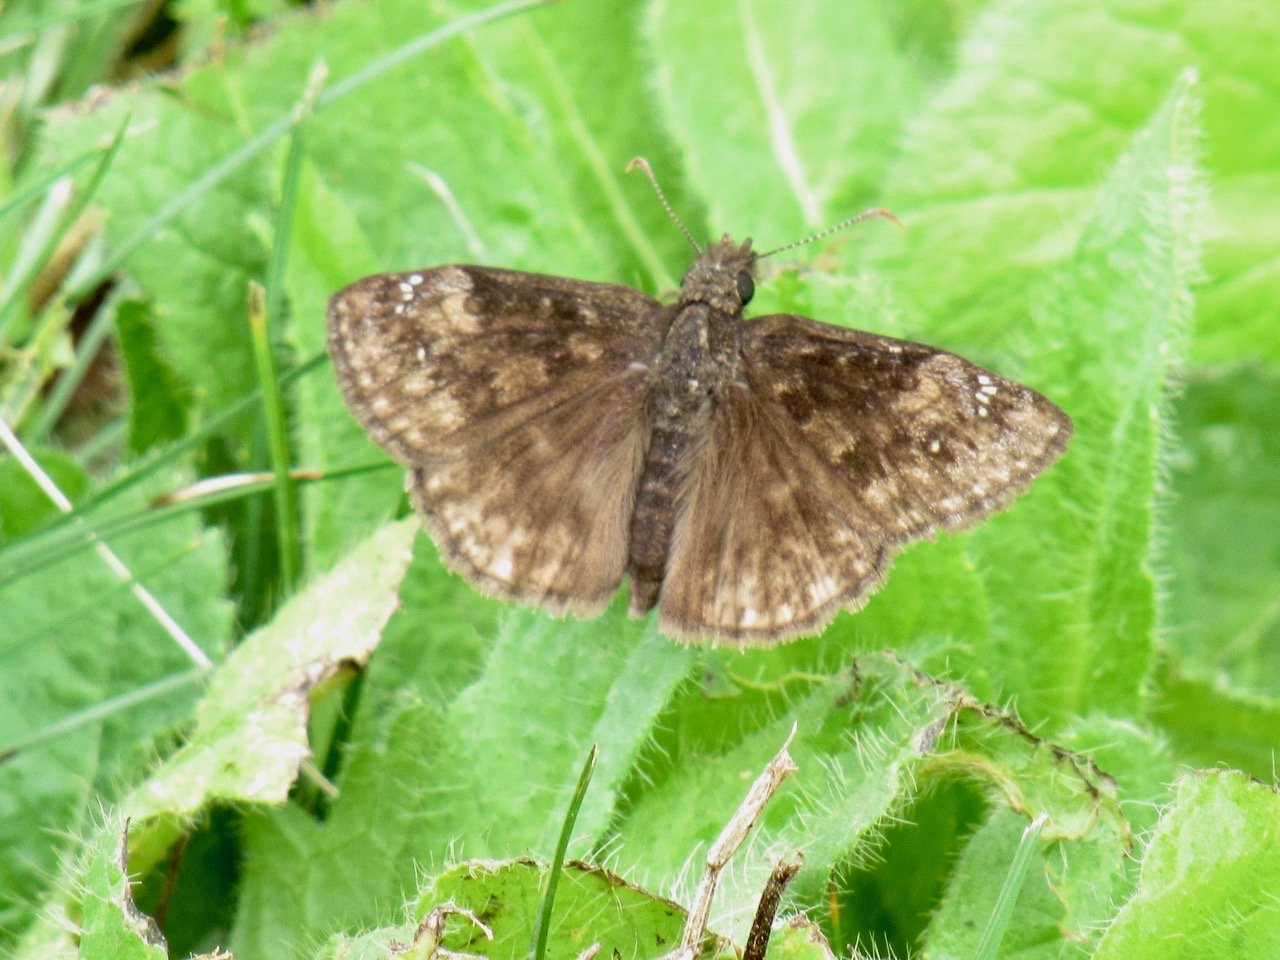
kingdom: Animalia
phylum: Arthropoda
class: Insecta
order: Lepidoptera
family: Hesperiidae
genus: Gesta
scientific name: Gesta
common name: Wild Indigo Duskywing
